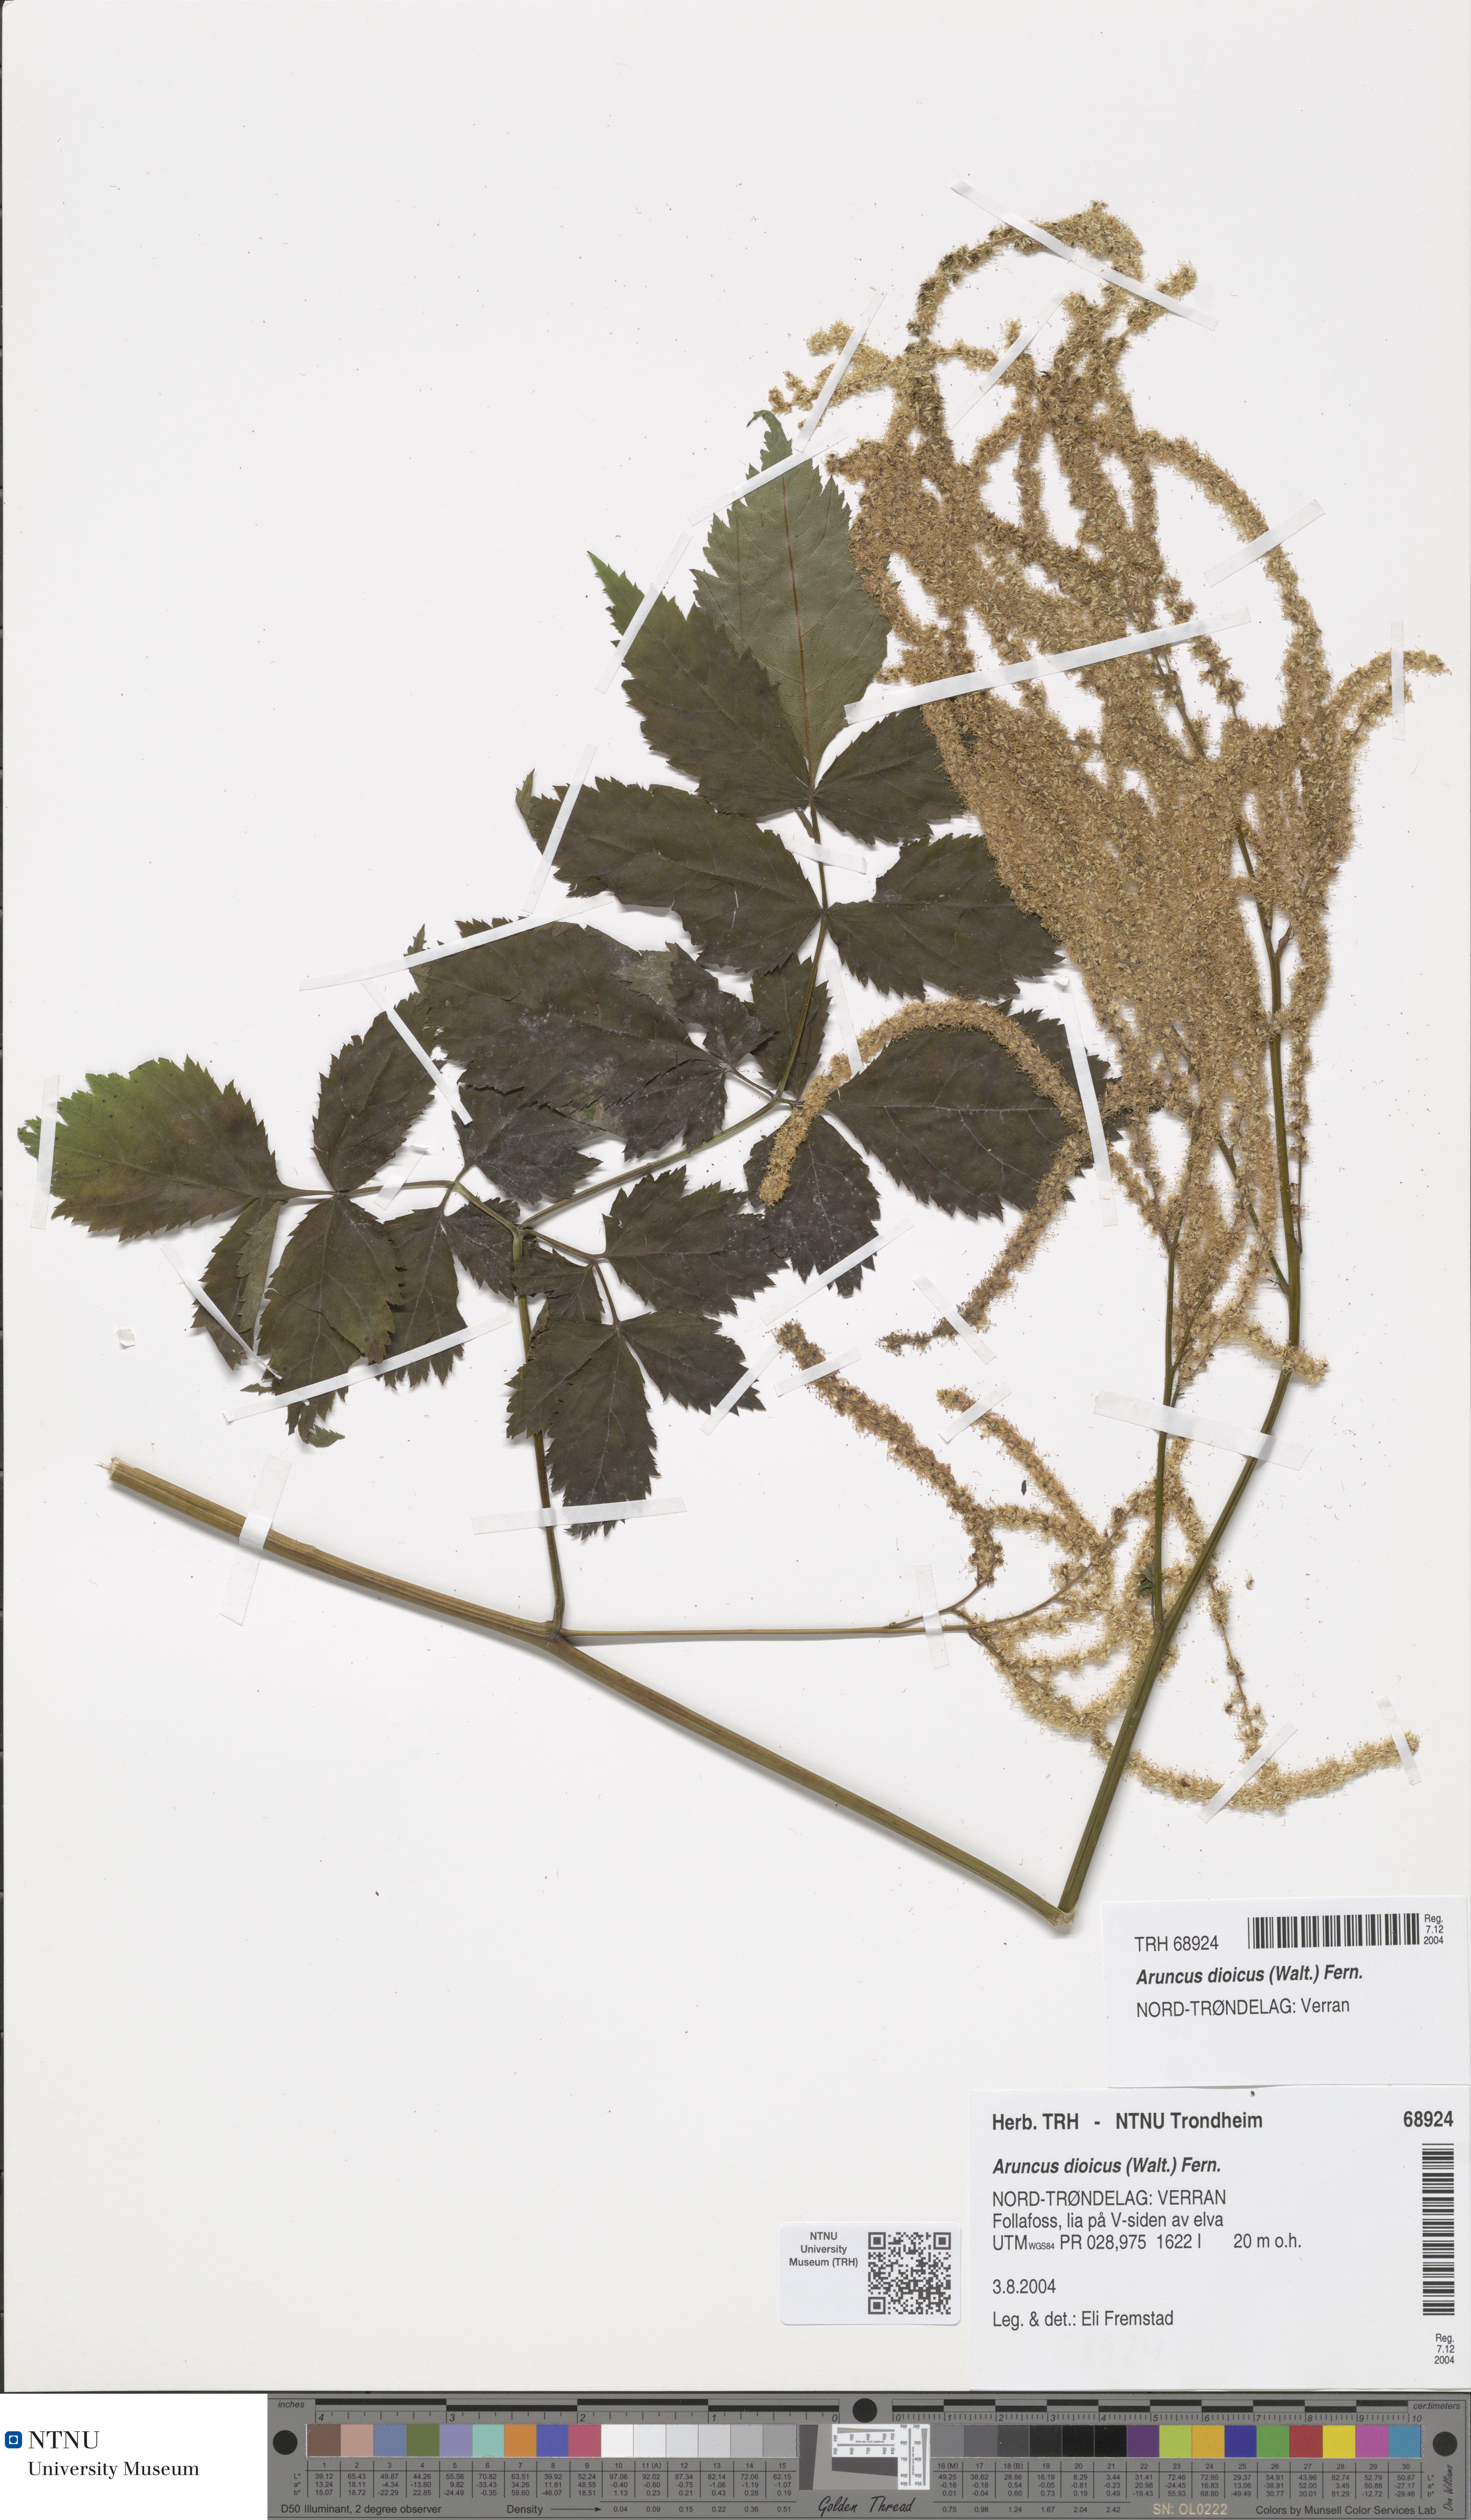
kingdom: Plantae
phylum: Tracheophyta
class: Magnoliopsida
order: Rosales
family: Rosaceae
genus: Aruncus
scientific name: Aruncus dioicus
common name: Buck's-beard
